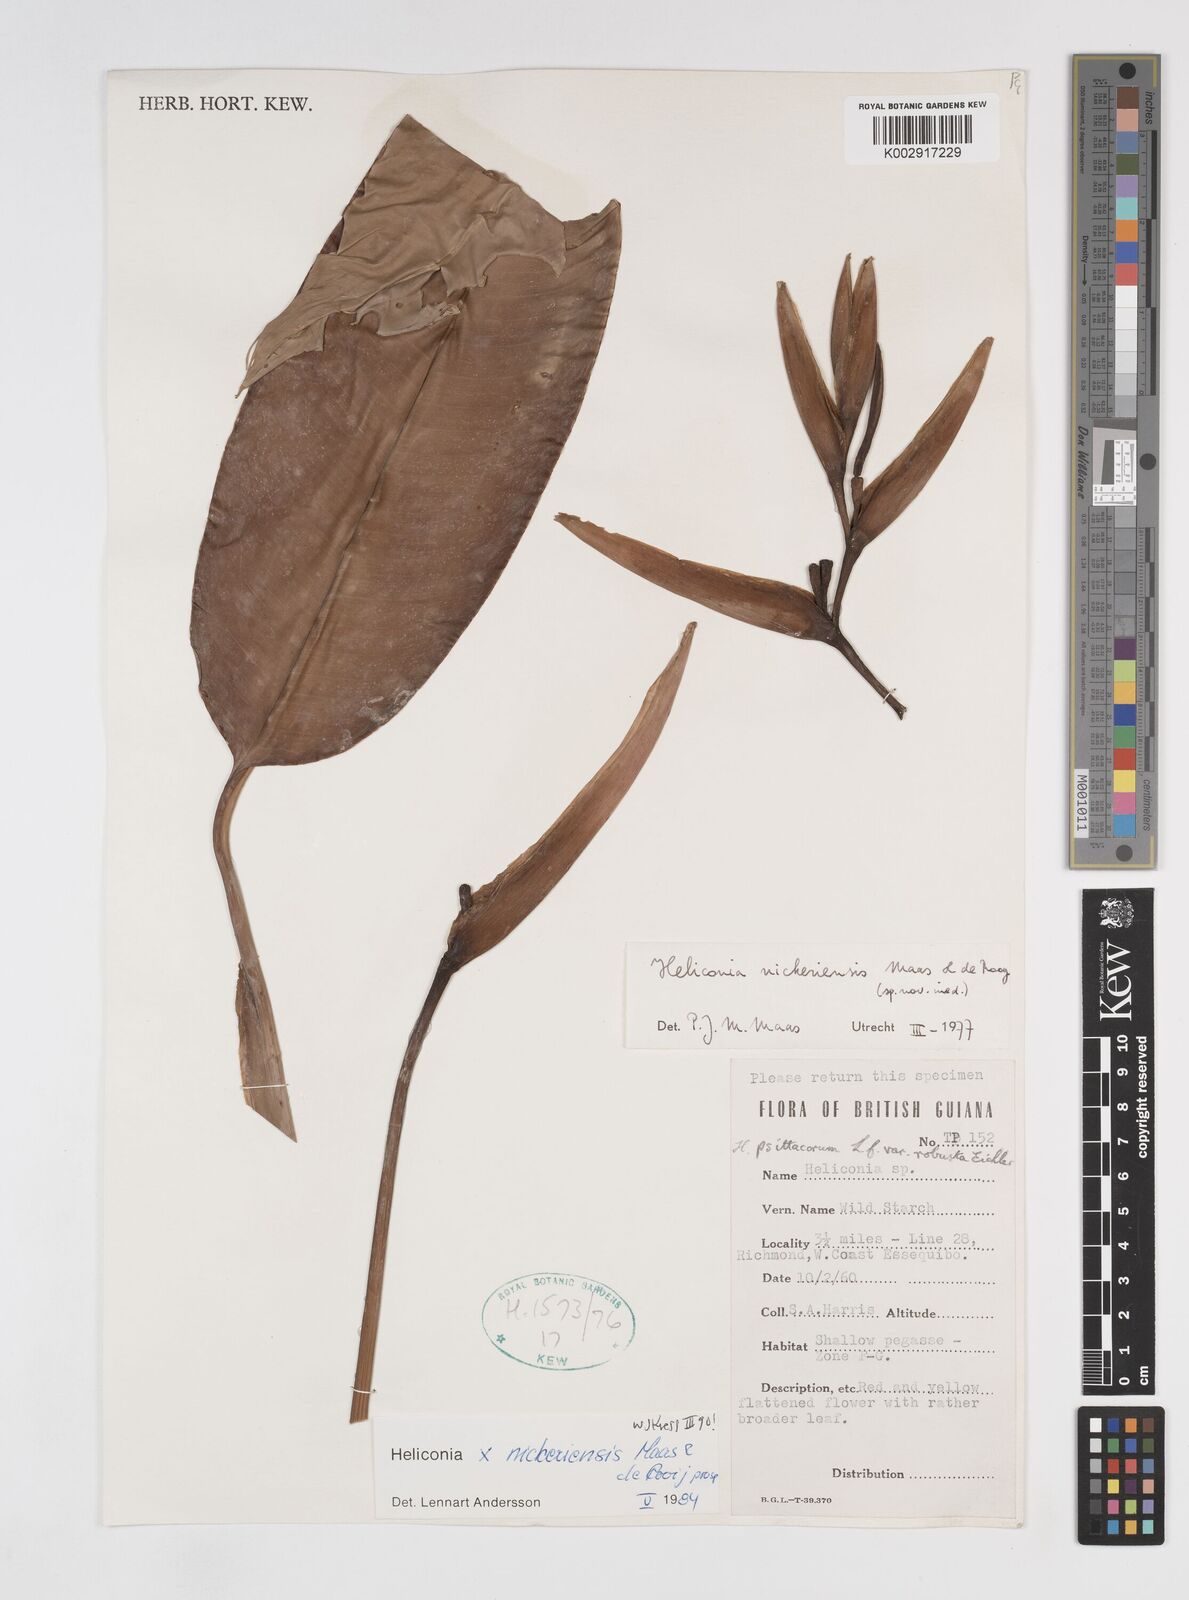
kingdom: Plantae
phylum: Tracheophyta
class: Liliopsida
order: Zingiberales
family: Heliconiaceae
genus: Heliconia
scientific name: Heliconia nickeriensis
